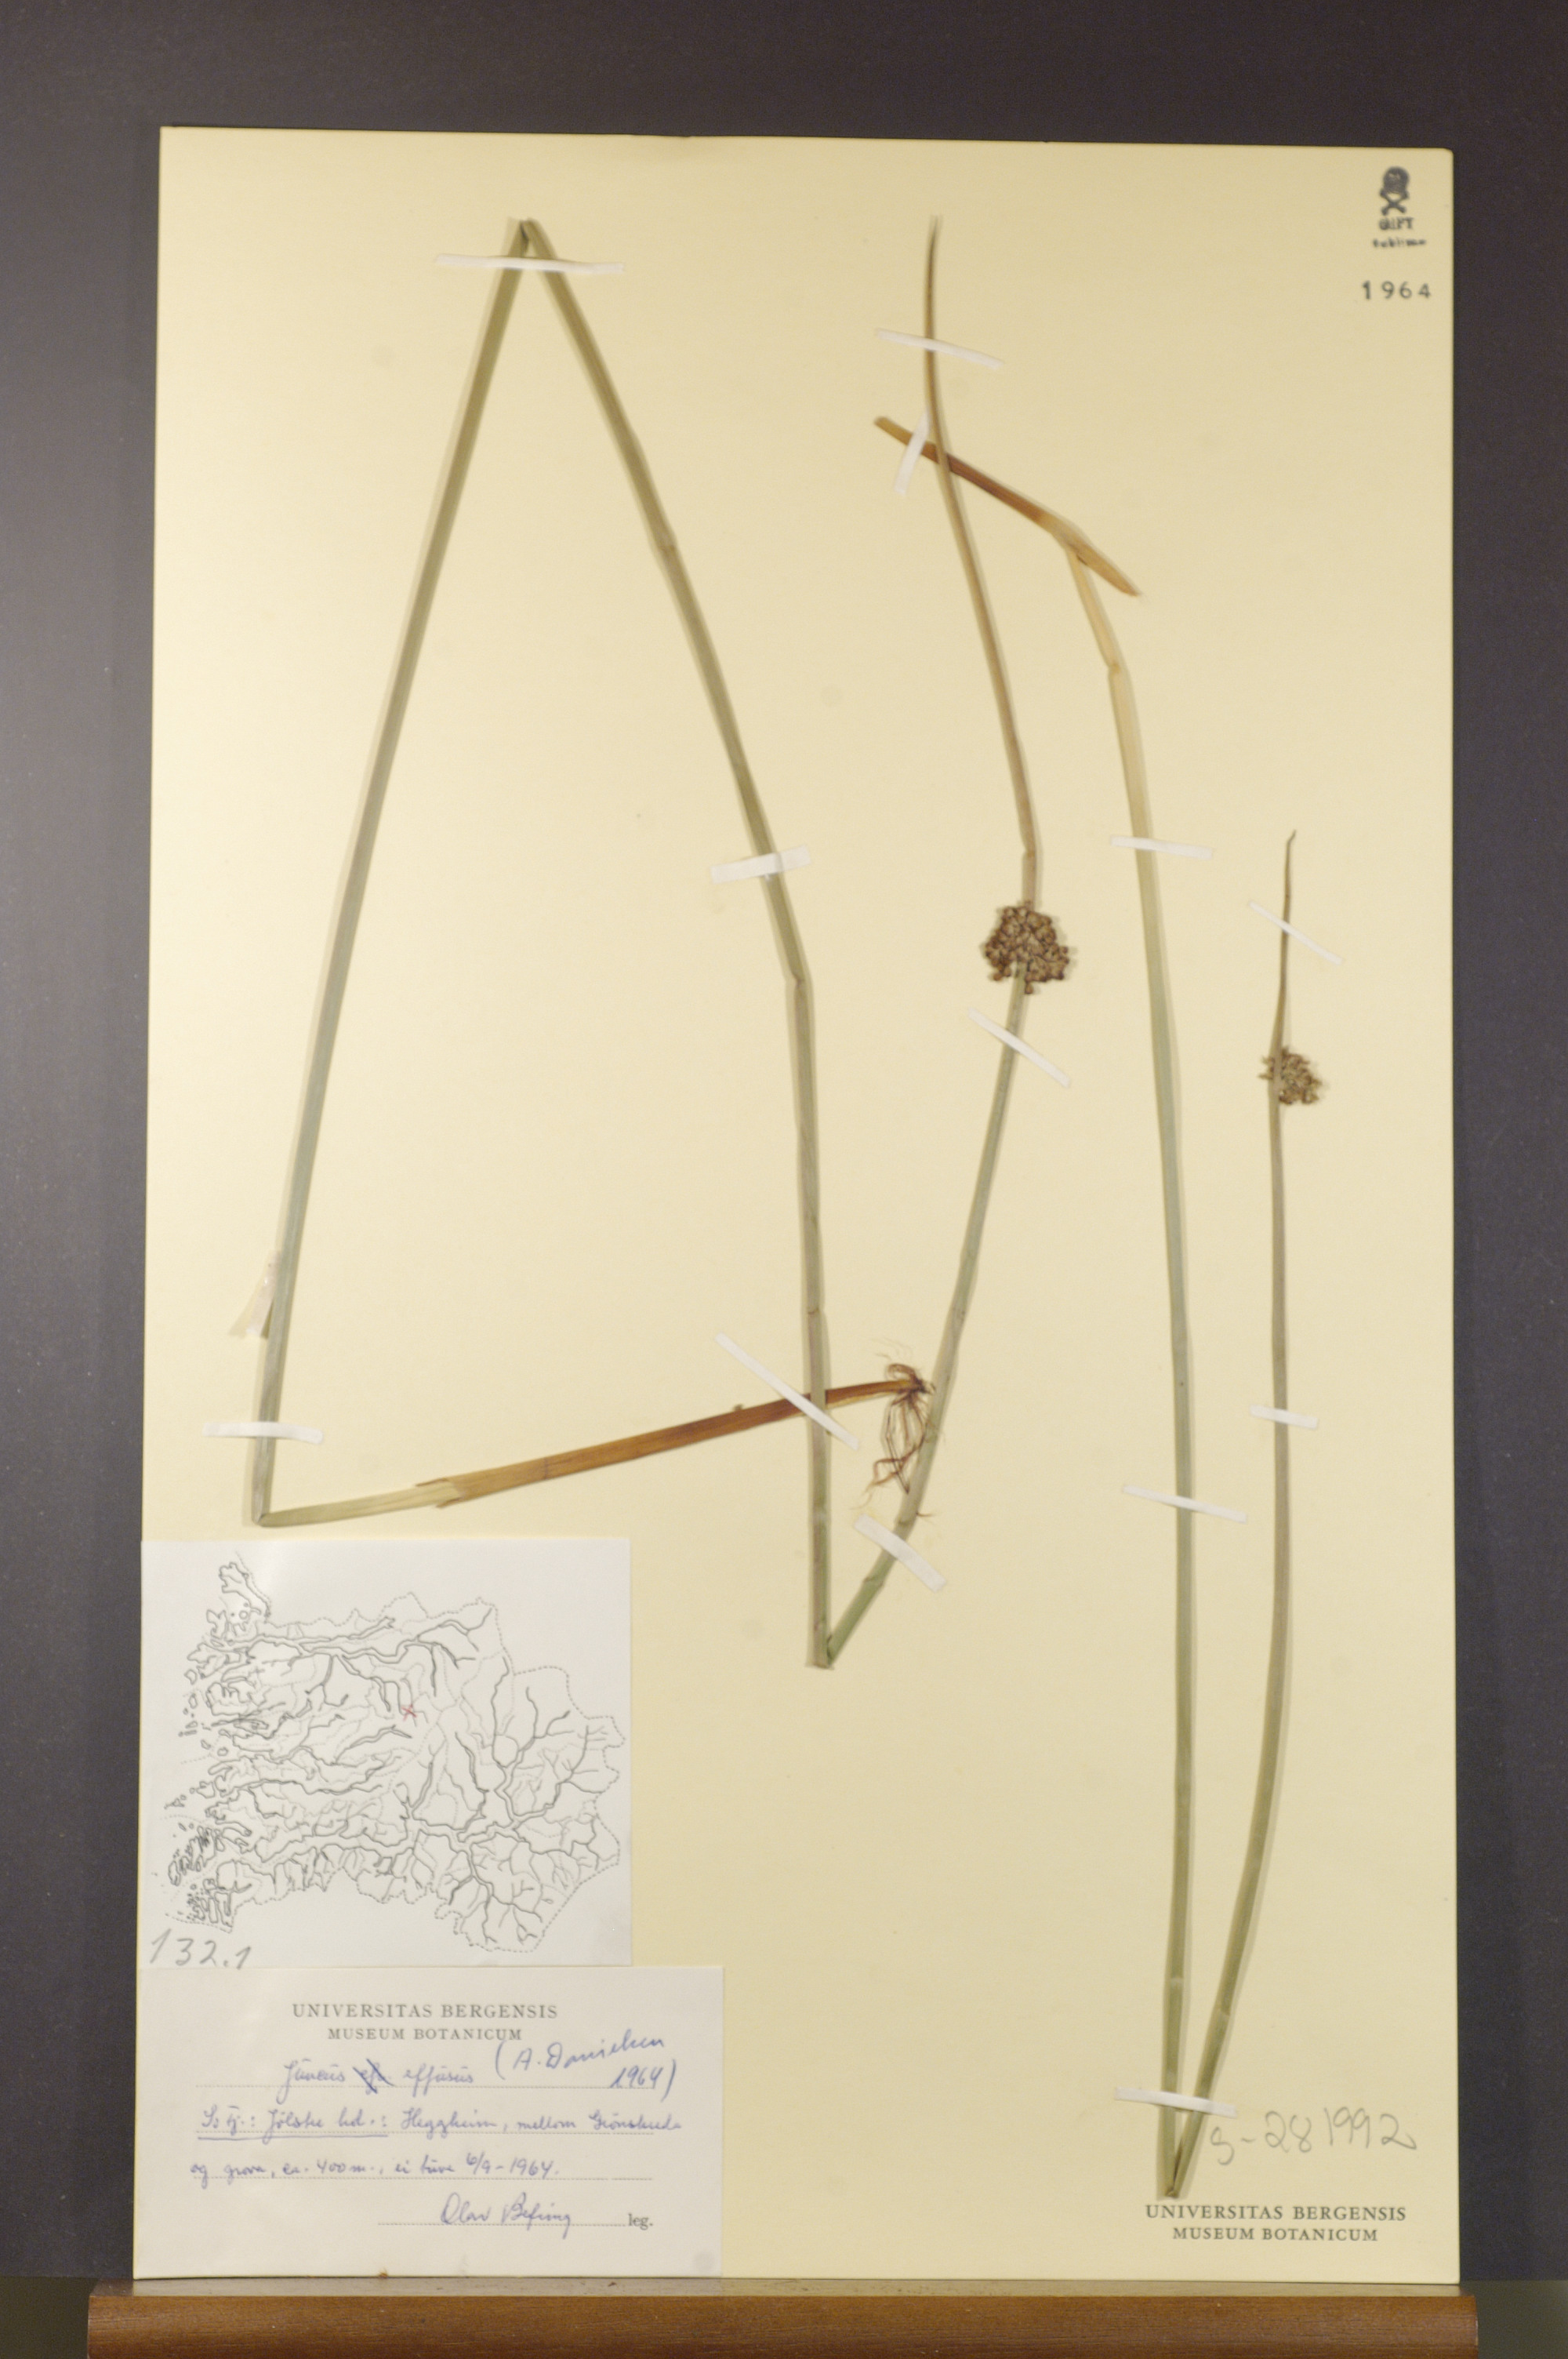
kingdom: Plantae
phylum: Tracheophyta
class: Liliopsida
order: Poales
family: Juncaceae
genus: Juncus
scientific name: Juncus effusus
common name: Soft rush
